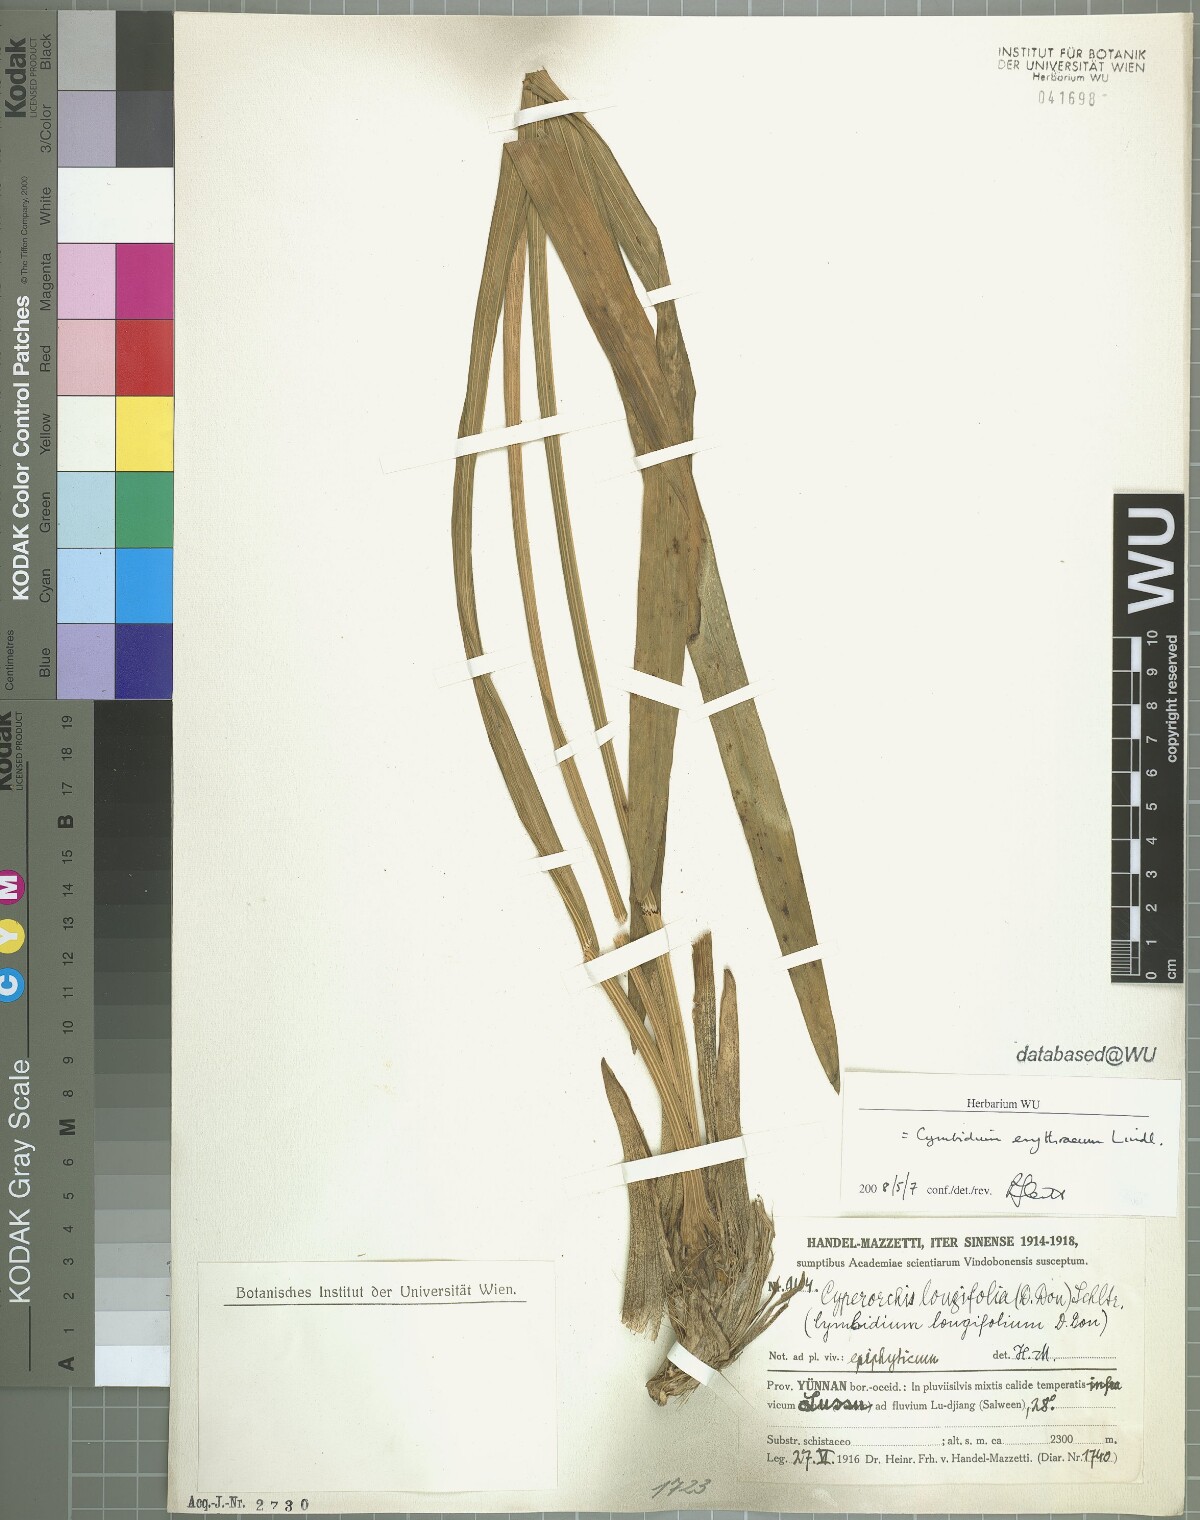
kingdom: Plantae
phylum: Tracheophyta
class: Liliopsida
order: Asparagales
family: Orchidaceae
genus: Cymbidium
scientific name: Cymbidium erythraeum
